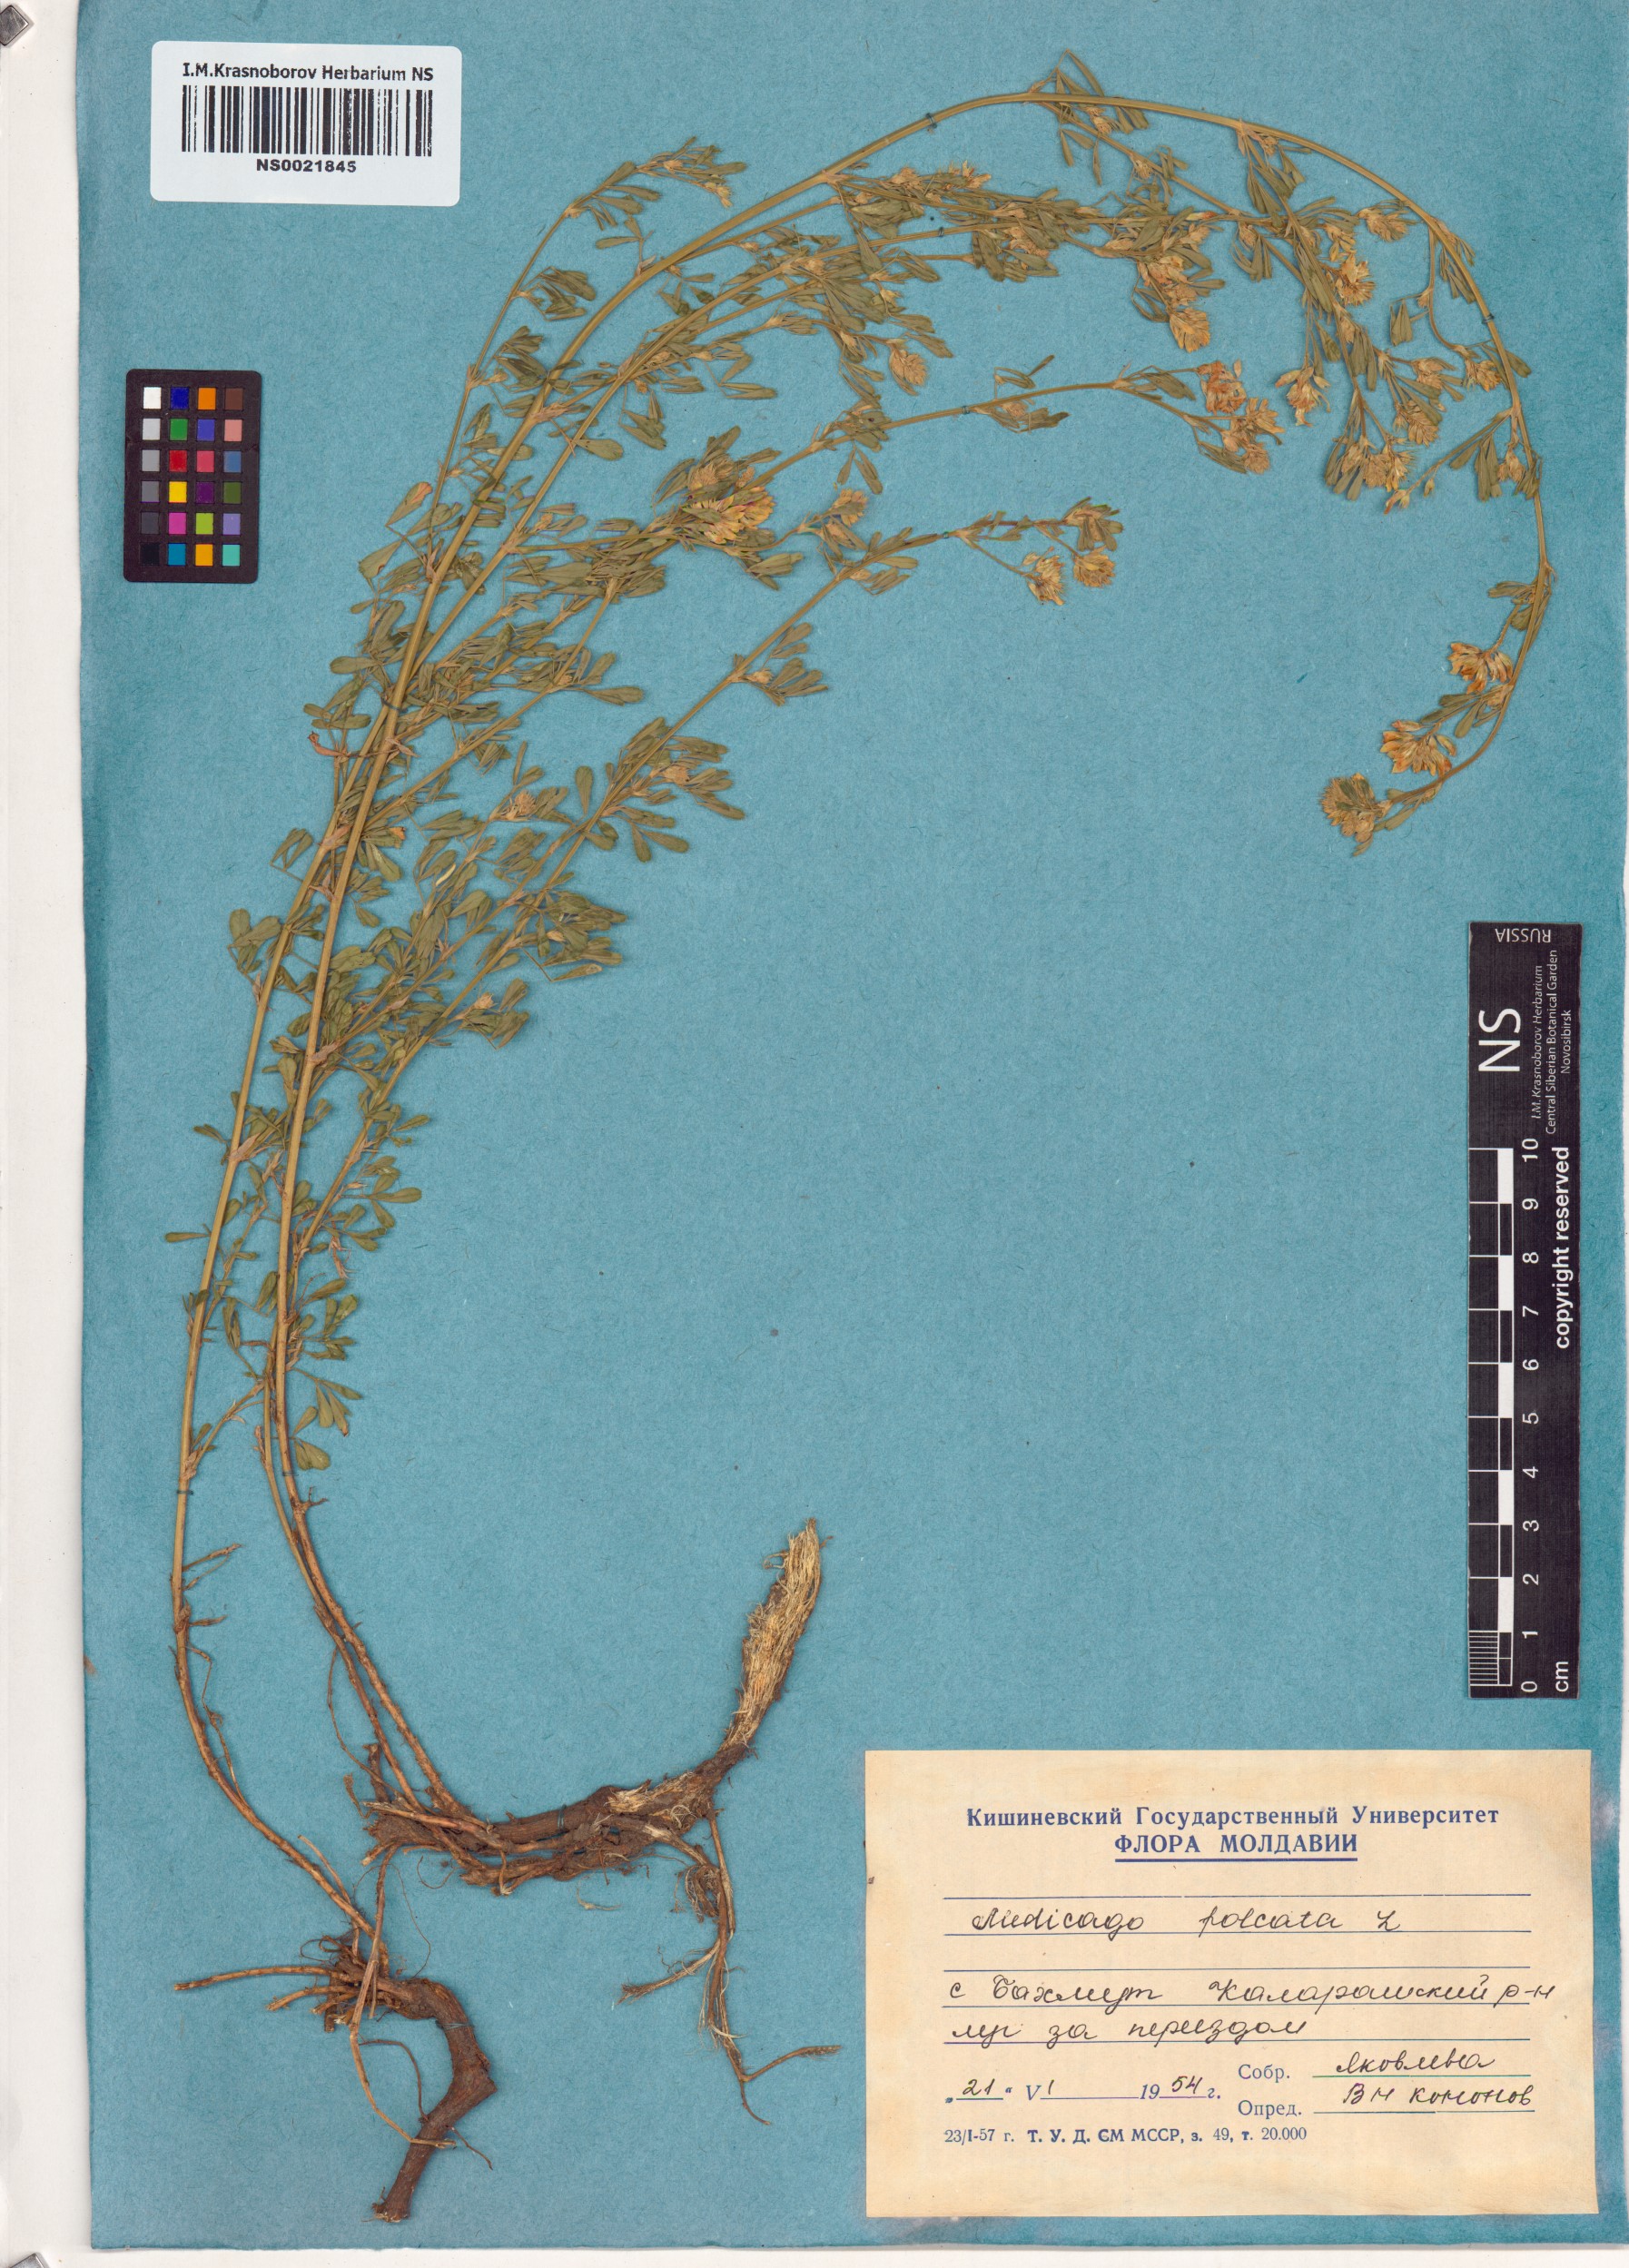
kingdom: Plantae
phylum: Tracheophyta
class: Magnoliopsida
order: Fabales
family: Fabaceae
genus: Medicago
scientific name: Medicago falcata
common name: Sickle medick
